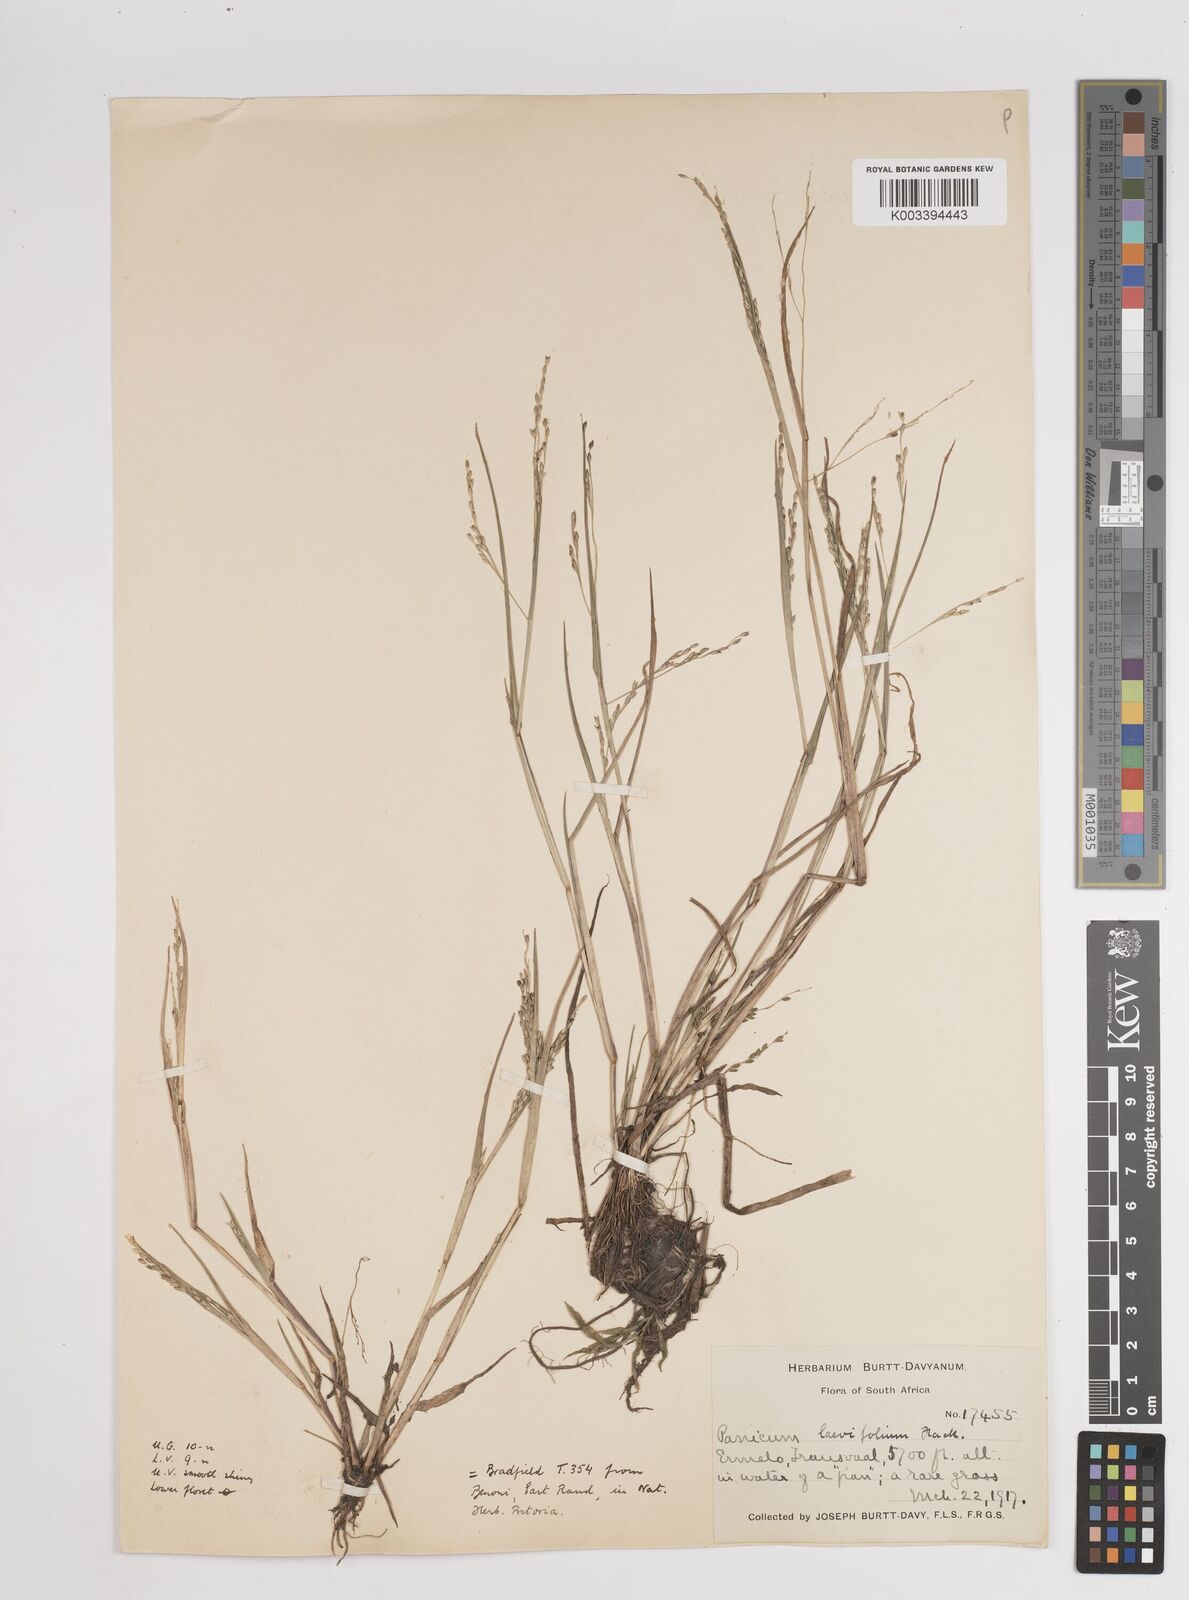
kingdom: Plantae
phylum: Tracheophyta
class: Liliopsida
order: Poales
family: Poaceae
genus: Panicum
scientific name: Panicum
